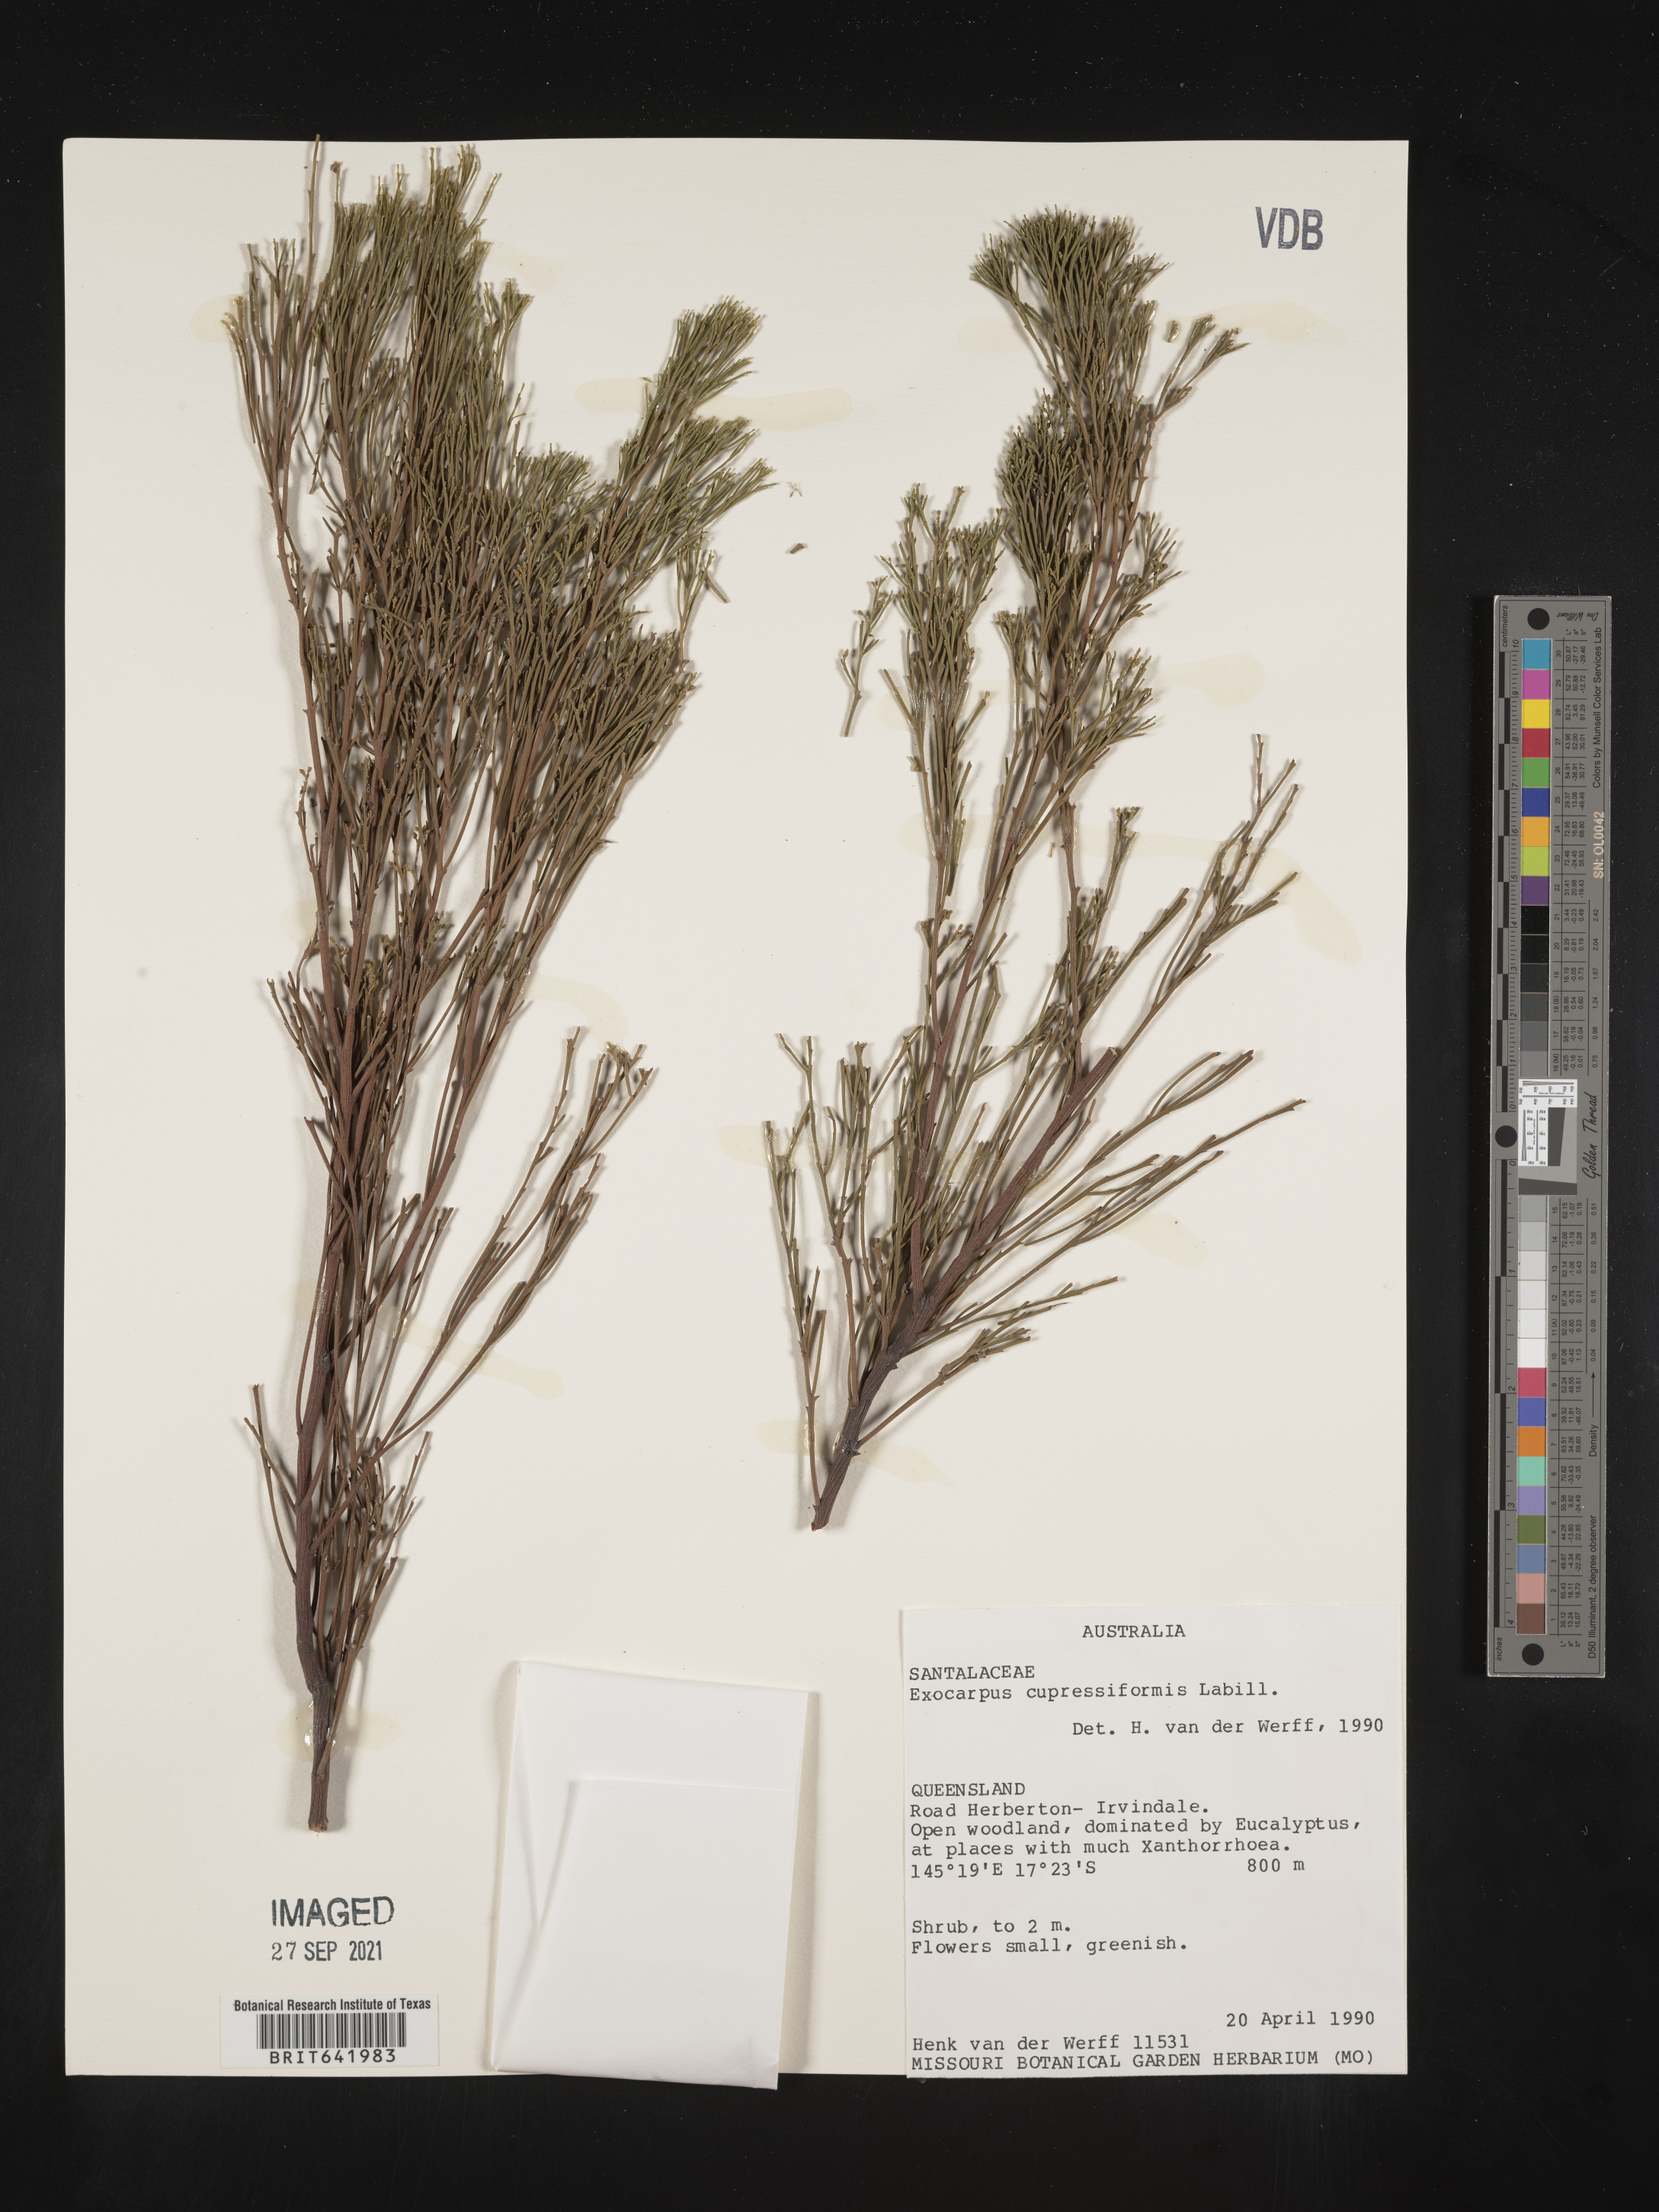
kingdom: Plantae
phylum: Tracheophyta
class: Magnoliopsida
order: Santalales
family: Santalaceae
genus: Exocarpos
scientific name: Exocarpos
